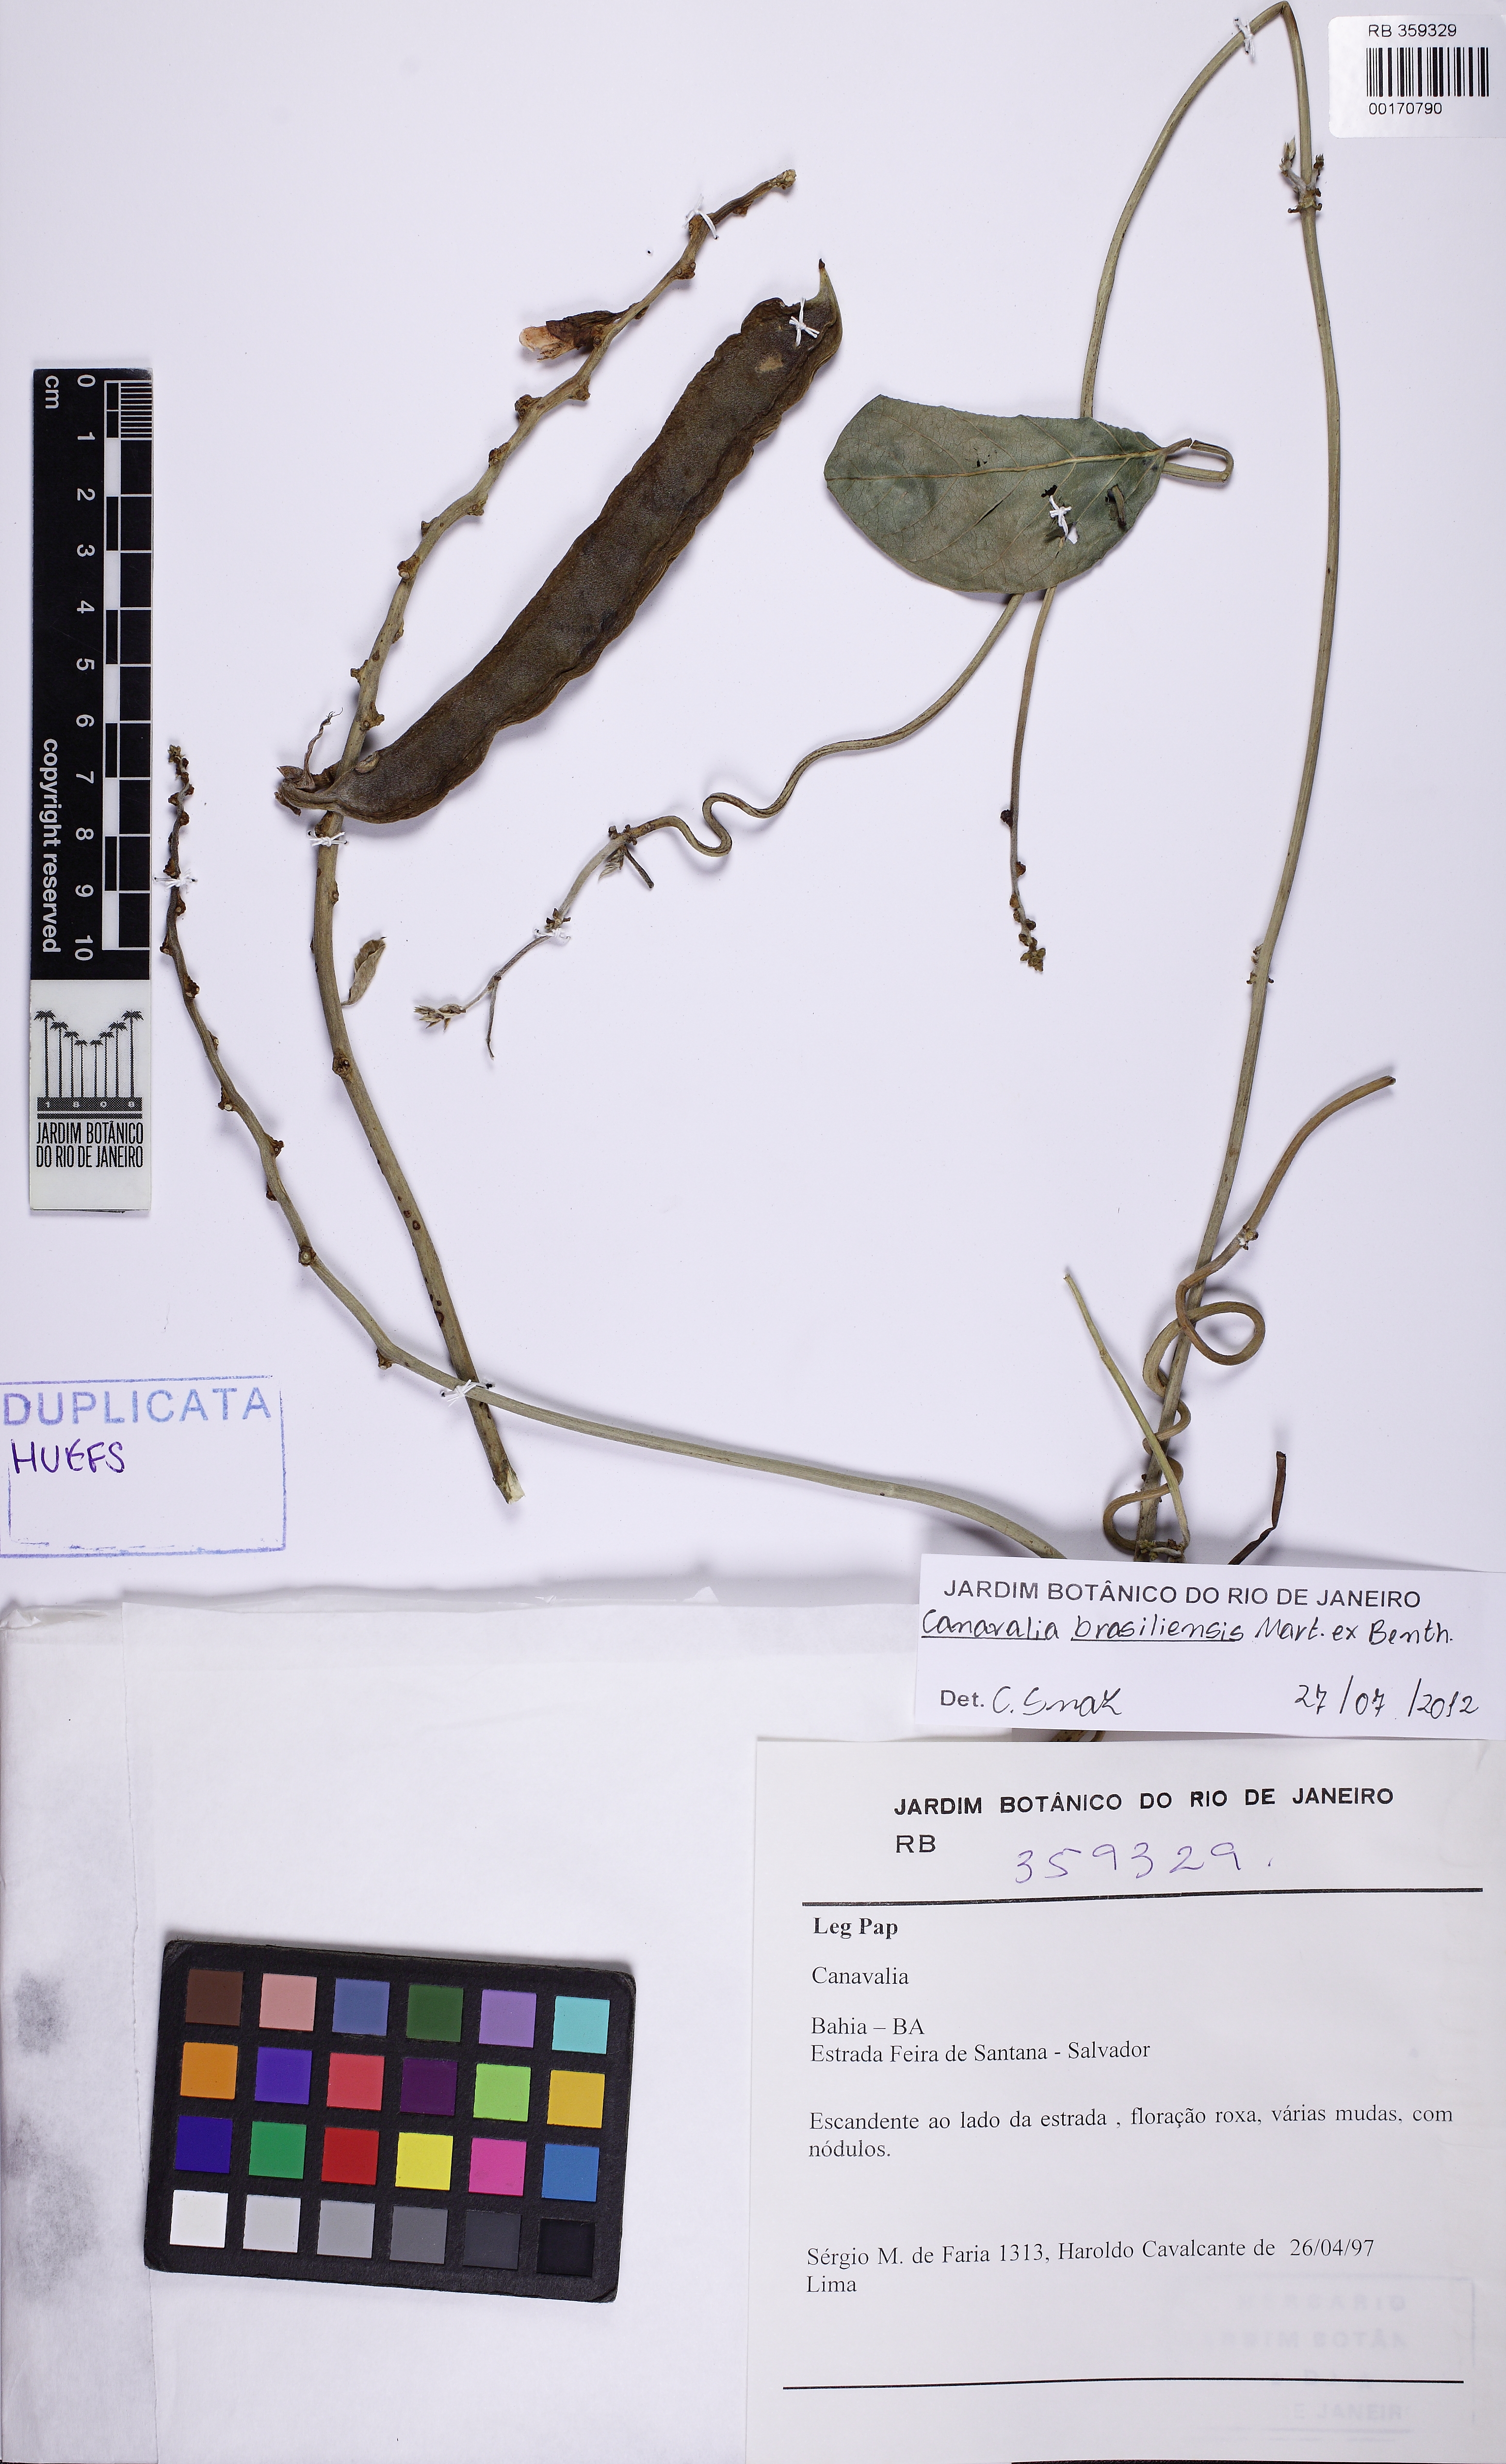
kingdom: Plantae
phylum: Tracheophyta
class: Magnoliopsida
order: Fabales
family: Fabaceae
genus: Canavalia
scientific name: Canavalia brasiliensis
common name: Barbicou-bean
